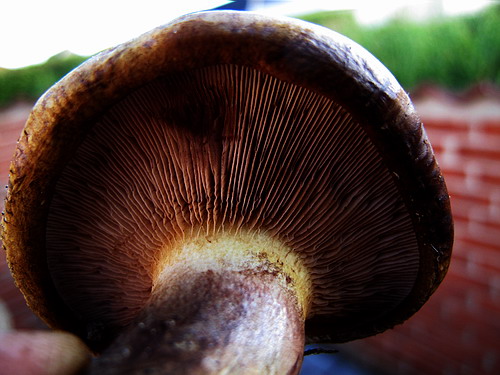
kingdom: Fungi
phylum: Basidiomycota
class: Agaricomycetes
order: Boletales
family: Paxillaceae
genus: Paxillus
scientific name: Paxillus obscurisporus
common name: mahognisporet netbladhat
